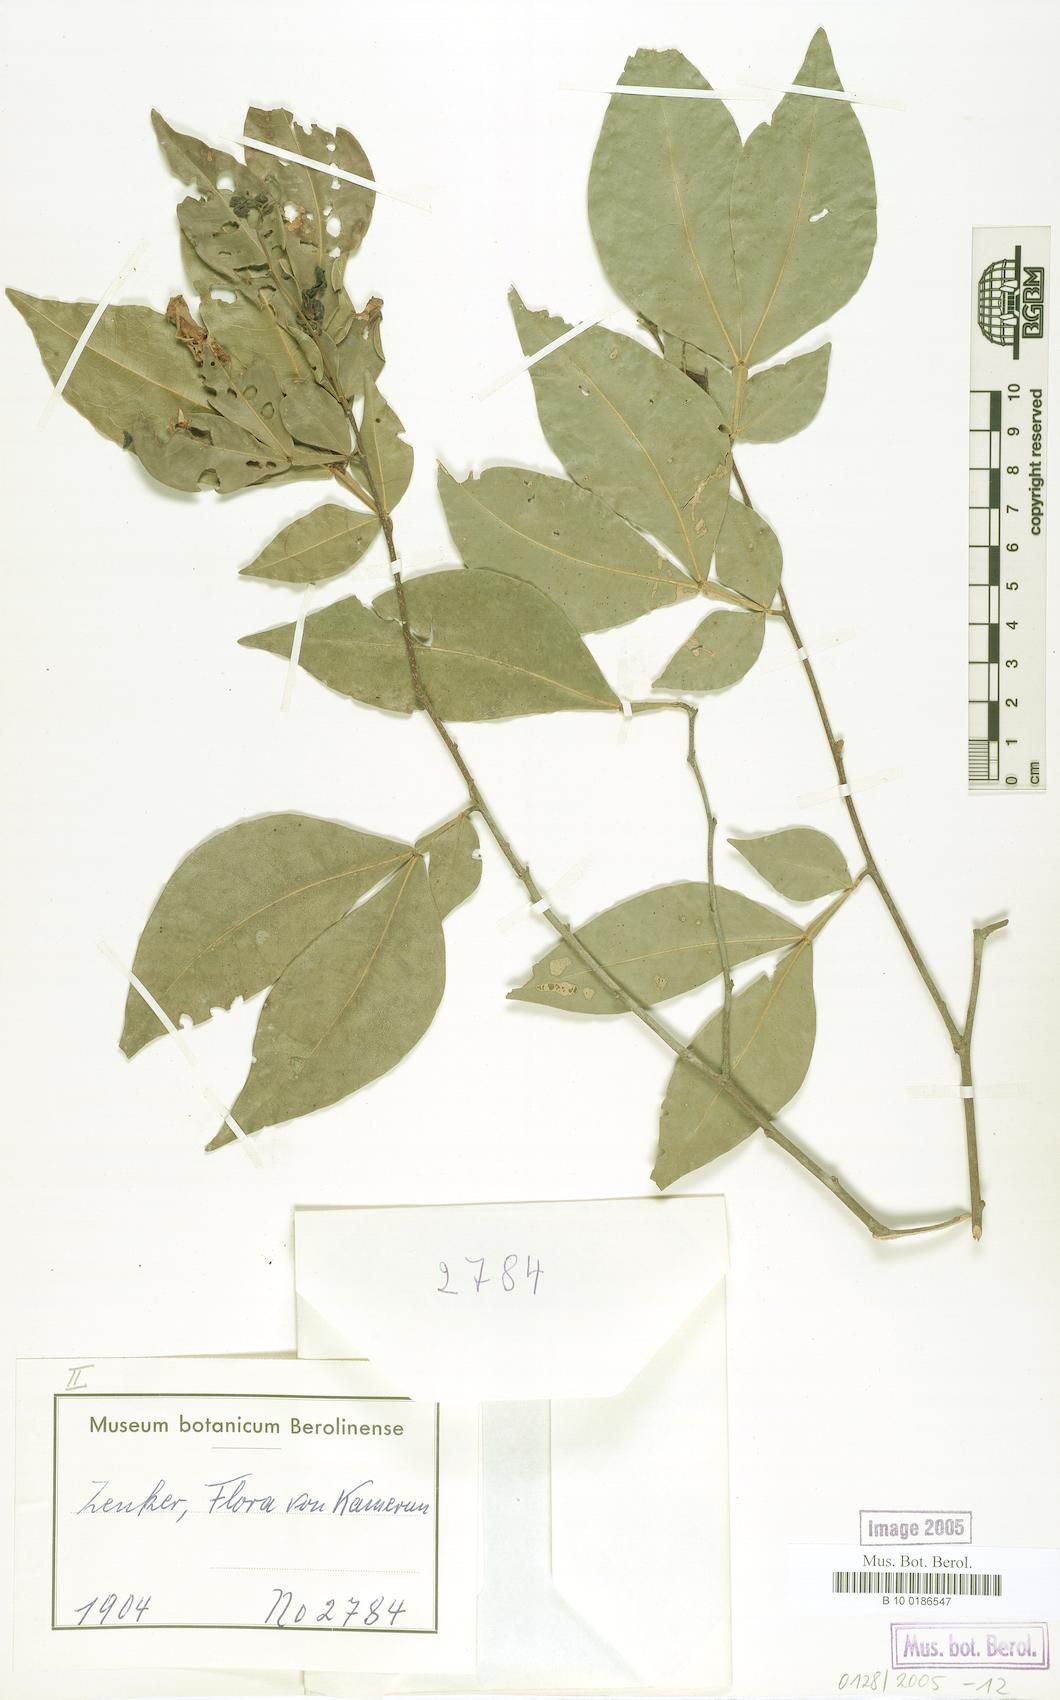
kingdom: Plantae
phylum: Tracheophyta
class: Magnoliopsida
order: Fabales
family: Fabaceae
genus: Annea
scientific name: Annea afzelii
